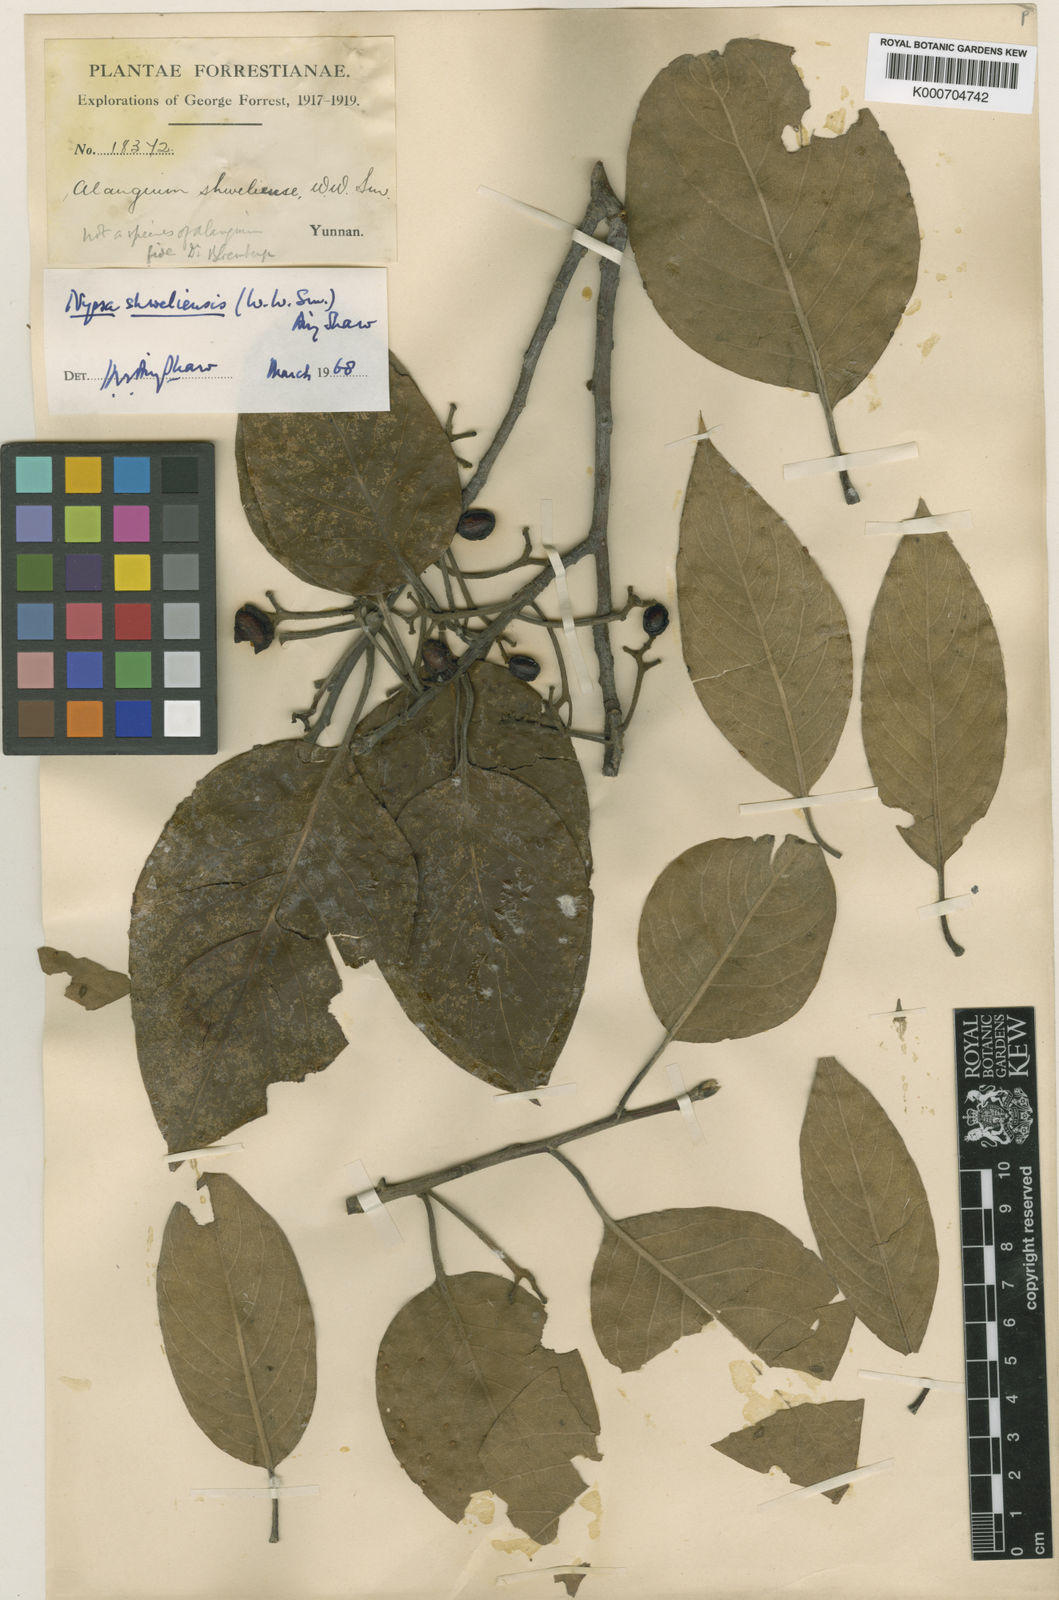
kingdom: Plantae
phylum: Tracheophyta
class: Magnoliopsida
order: Cornales
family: Nyssaceae
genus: Nyssa
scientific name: Nyssa sinensis
